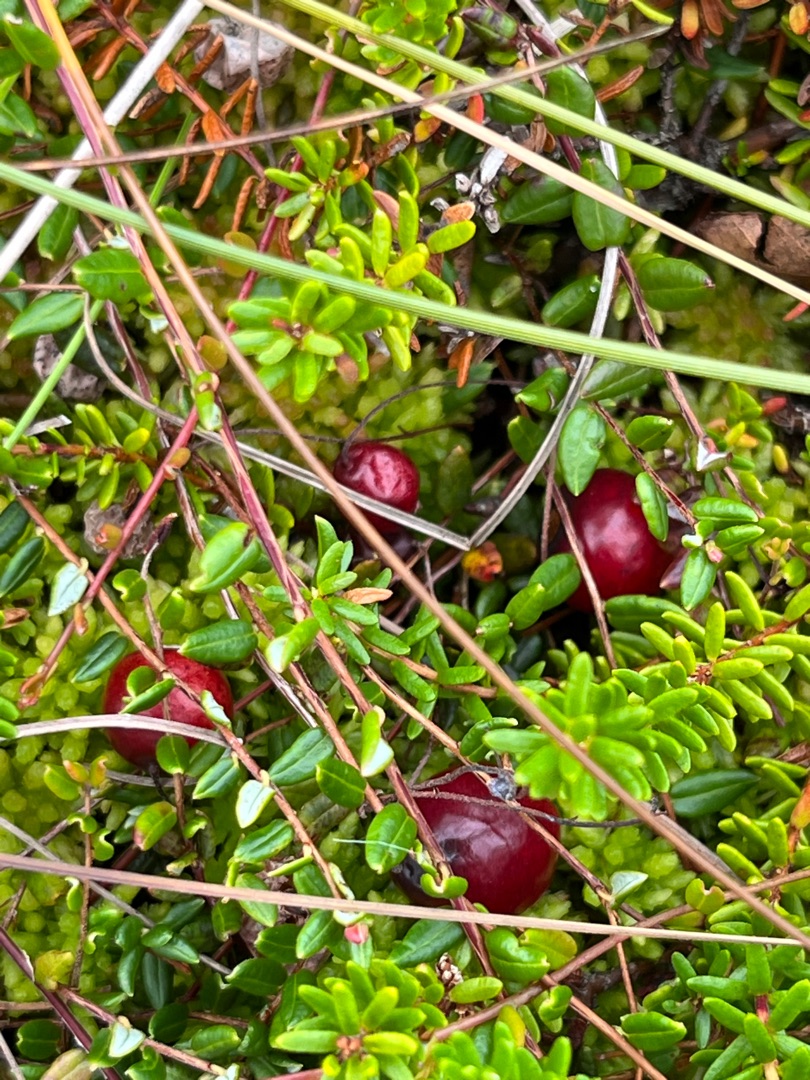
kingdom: Plantae
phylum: Tracheophyta
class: Magnoliopsida
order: Ericales
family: Ericaceae
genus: Vaccinium
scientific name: Vaccinium oxycoccos
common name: Tranebær
